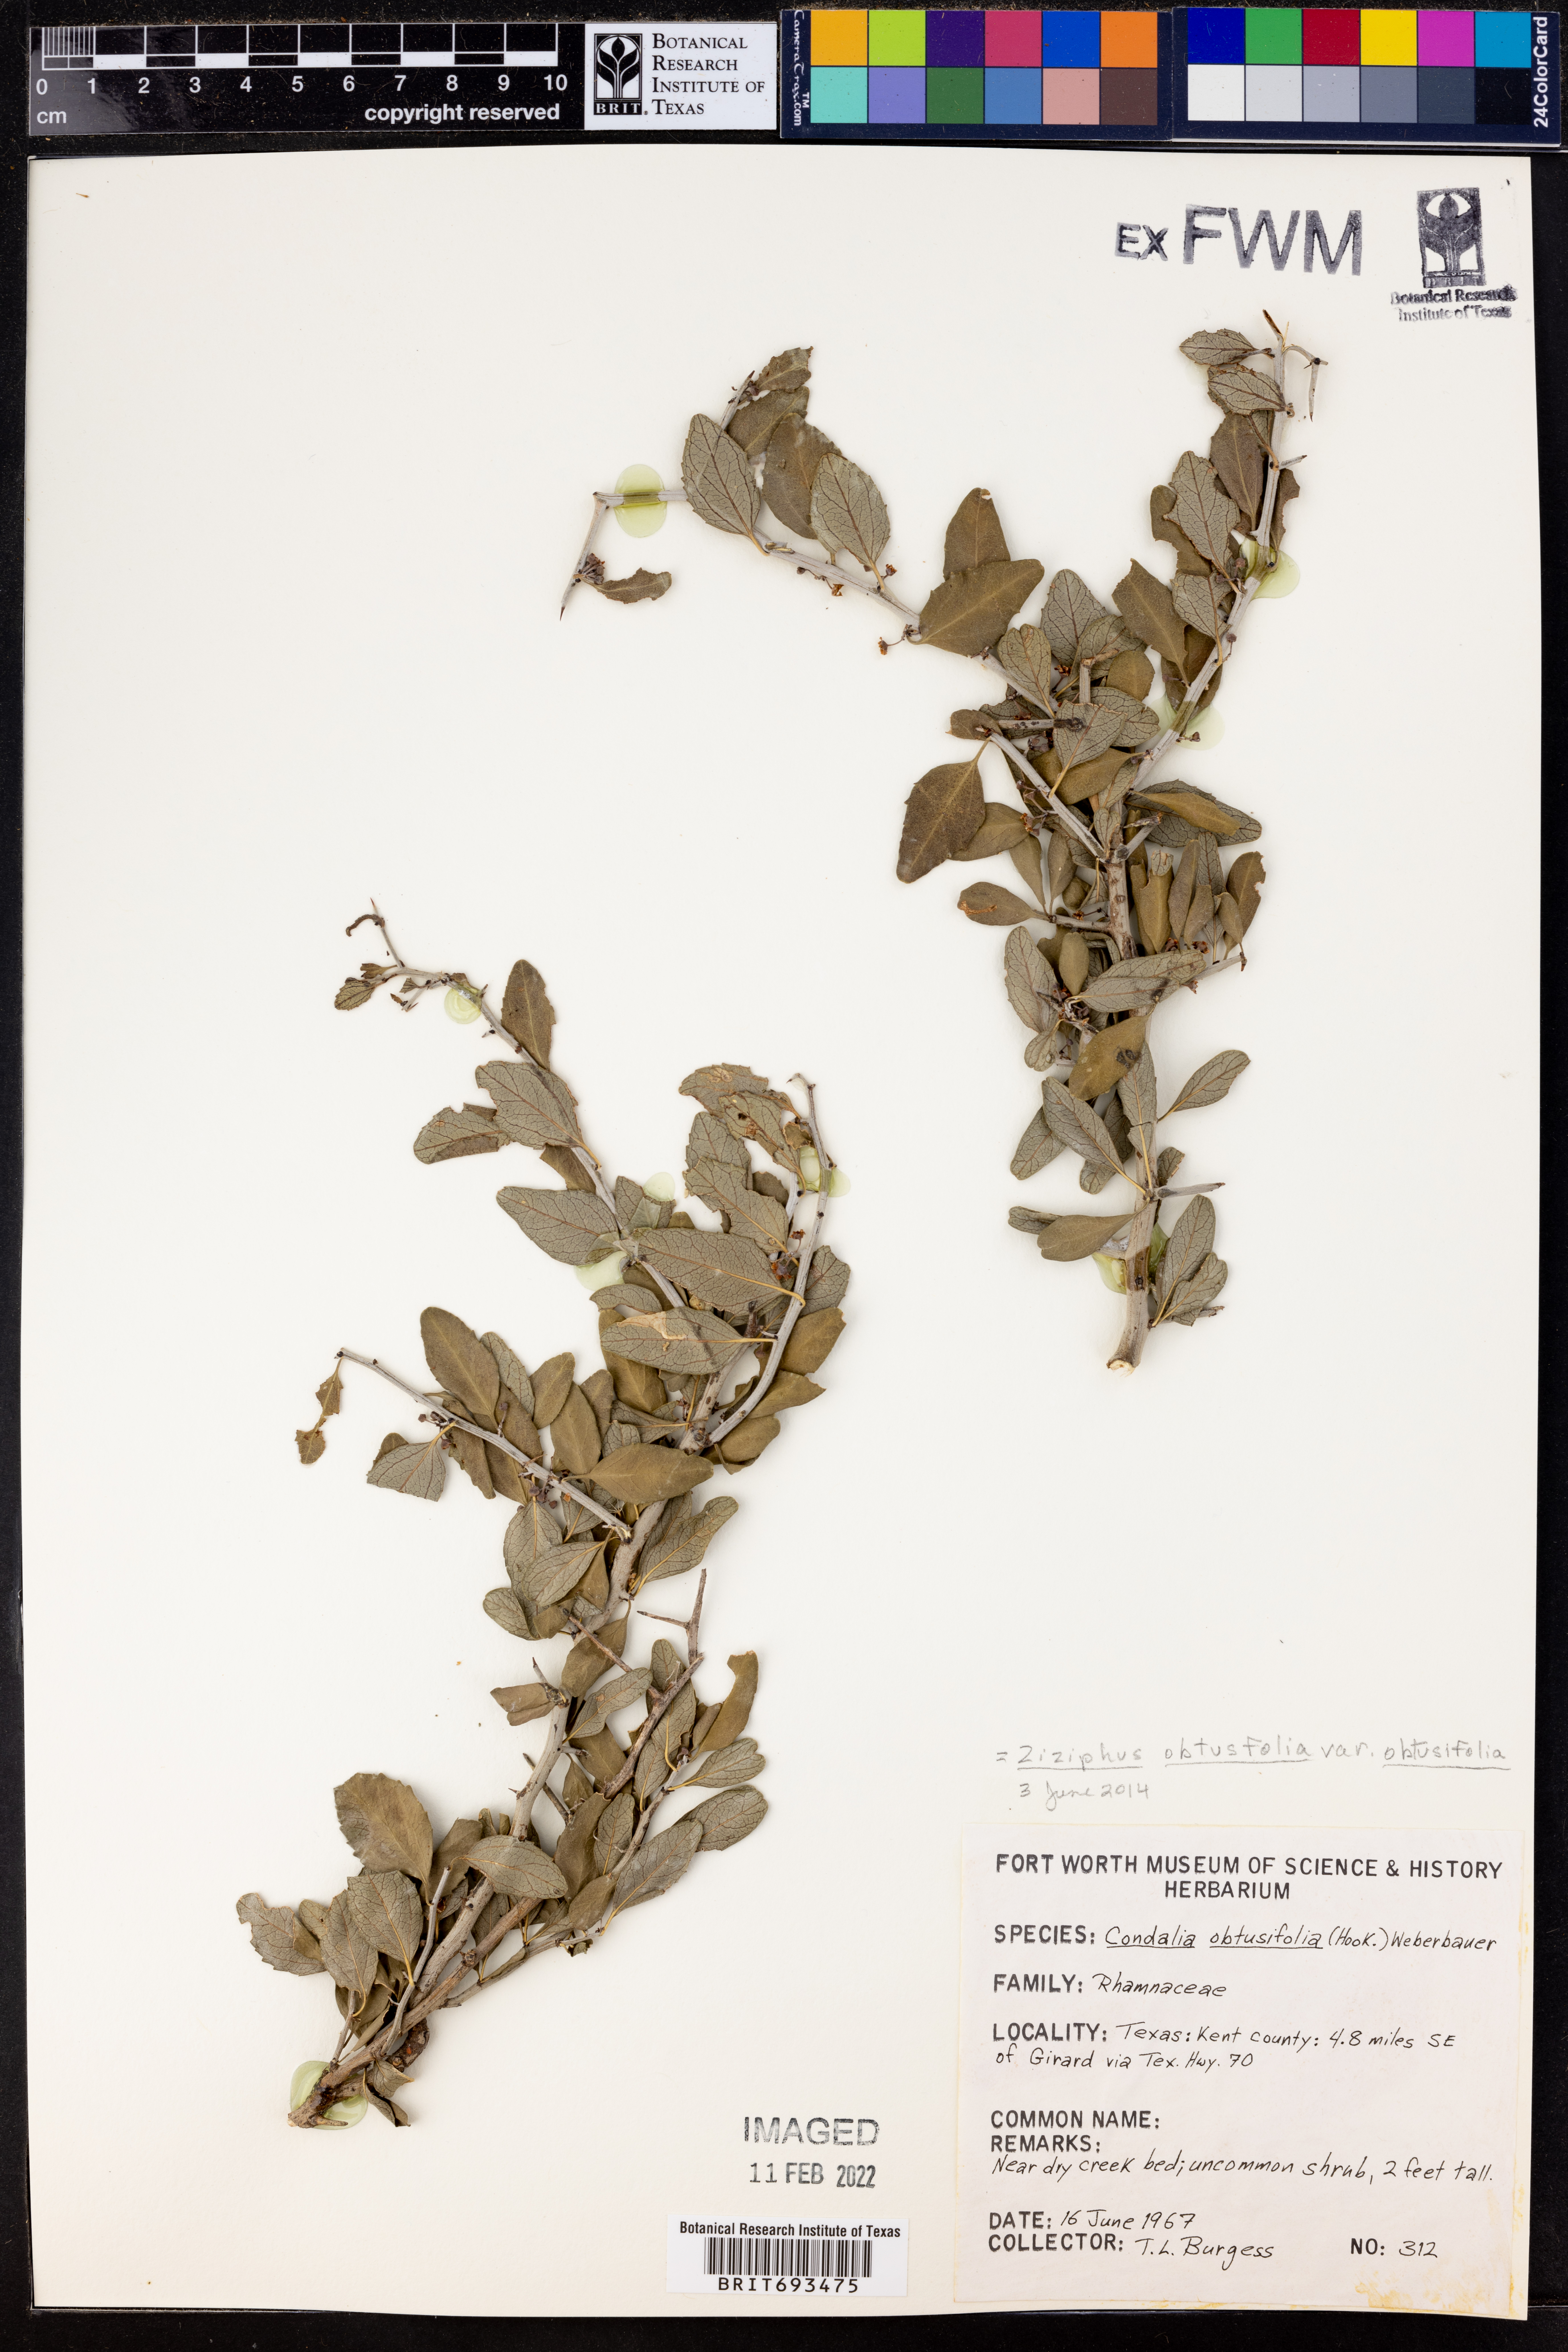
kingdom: Plantae
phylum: Tracheophyta
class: Magnoliopsida
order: Rosales
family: Rhamnaceae
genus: Sarcomphalus
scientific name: Sarcomphalus obtusifolius
